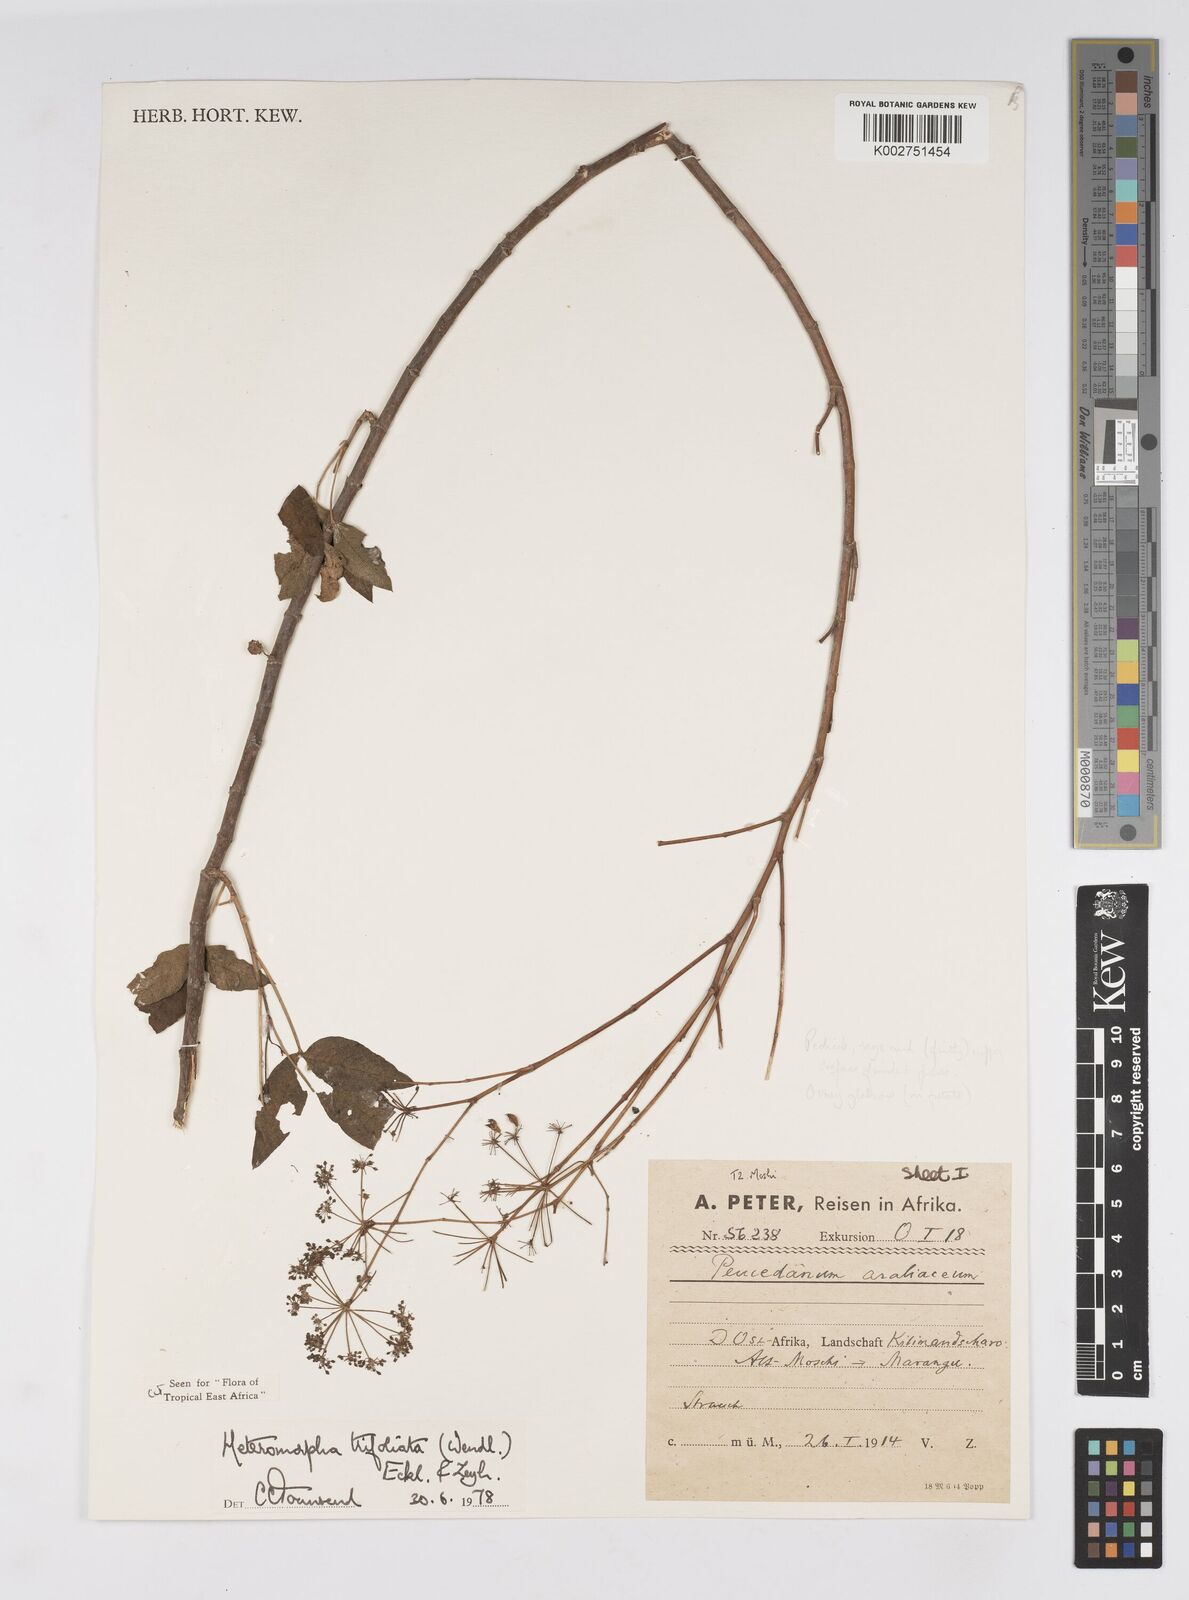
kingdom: Plantae
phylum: Tracheophyta
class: Magnoliopsida
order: Apiales
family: Apiaceae
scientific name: Apiaceae
